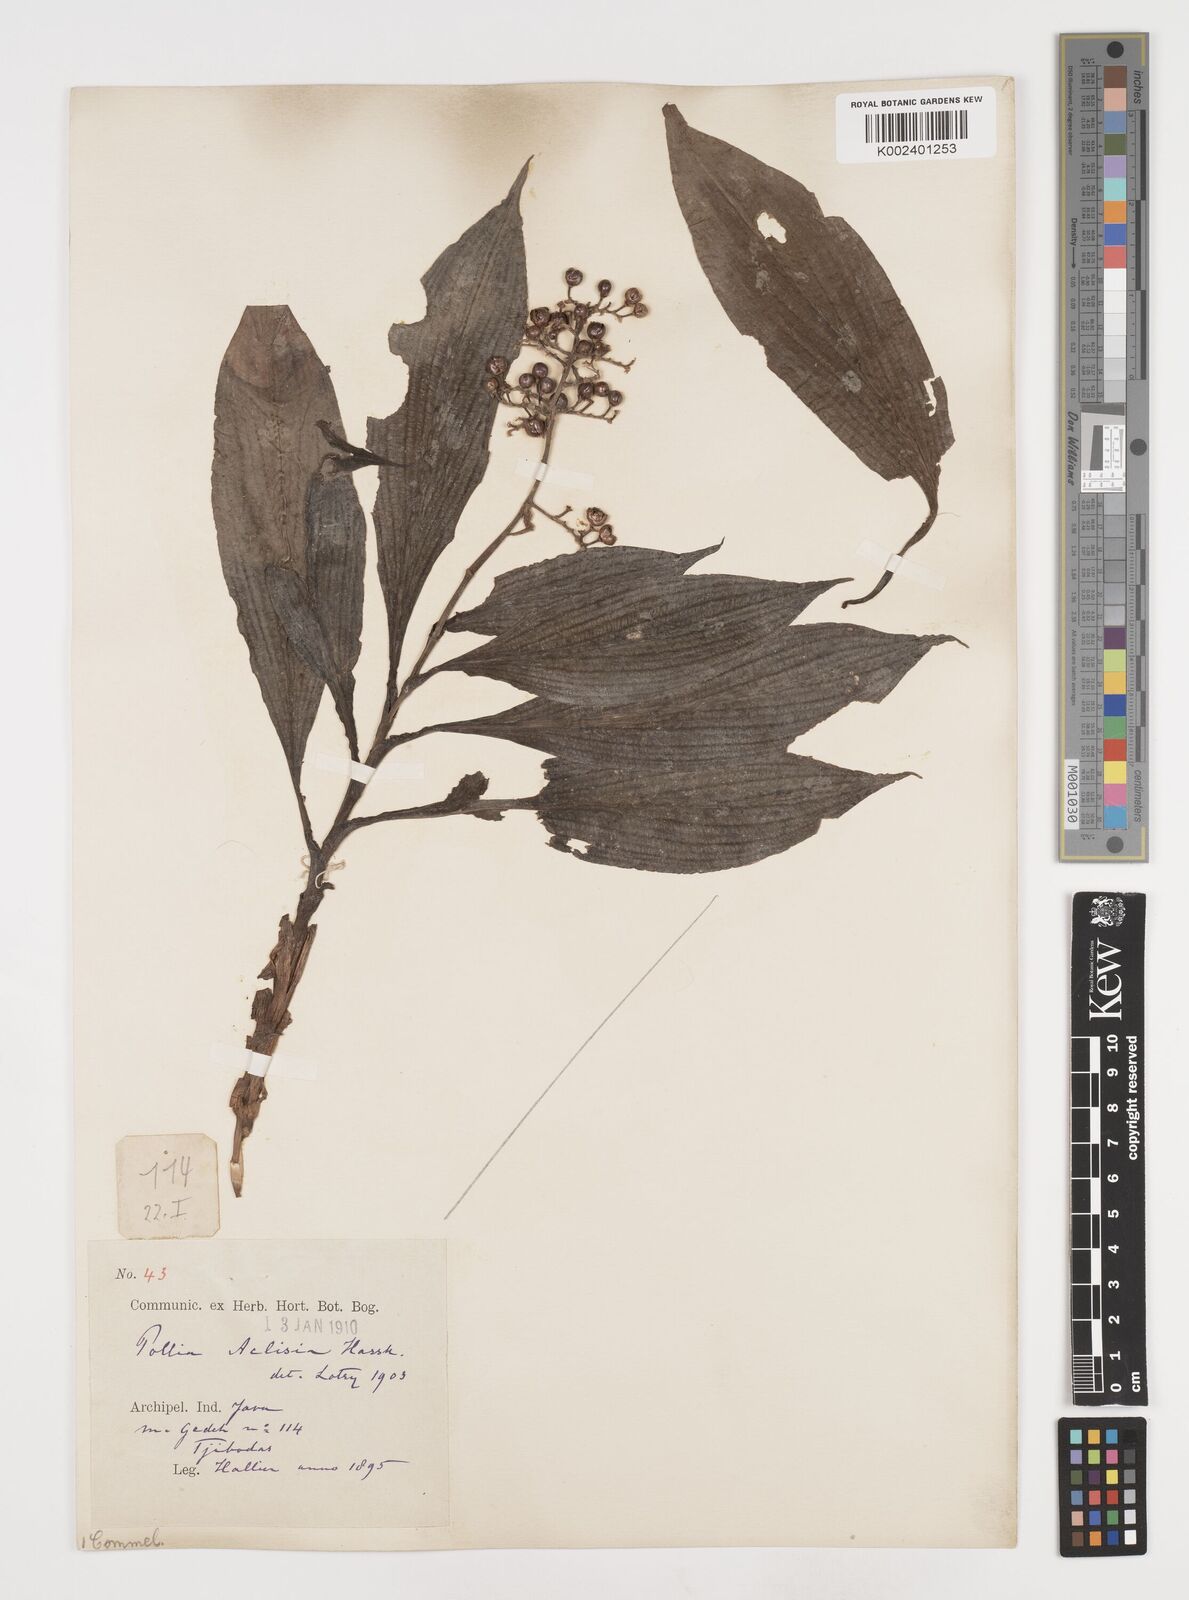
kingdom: Plantae
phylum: Tracheophyta
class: Liliopsida
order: Commelinales
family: Commelinaceae
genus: Pollia
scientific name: Pollia hasskarlii
